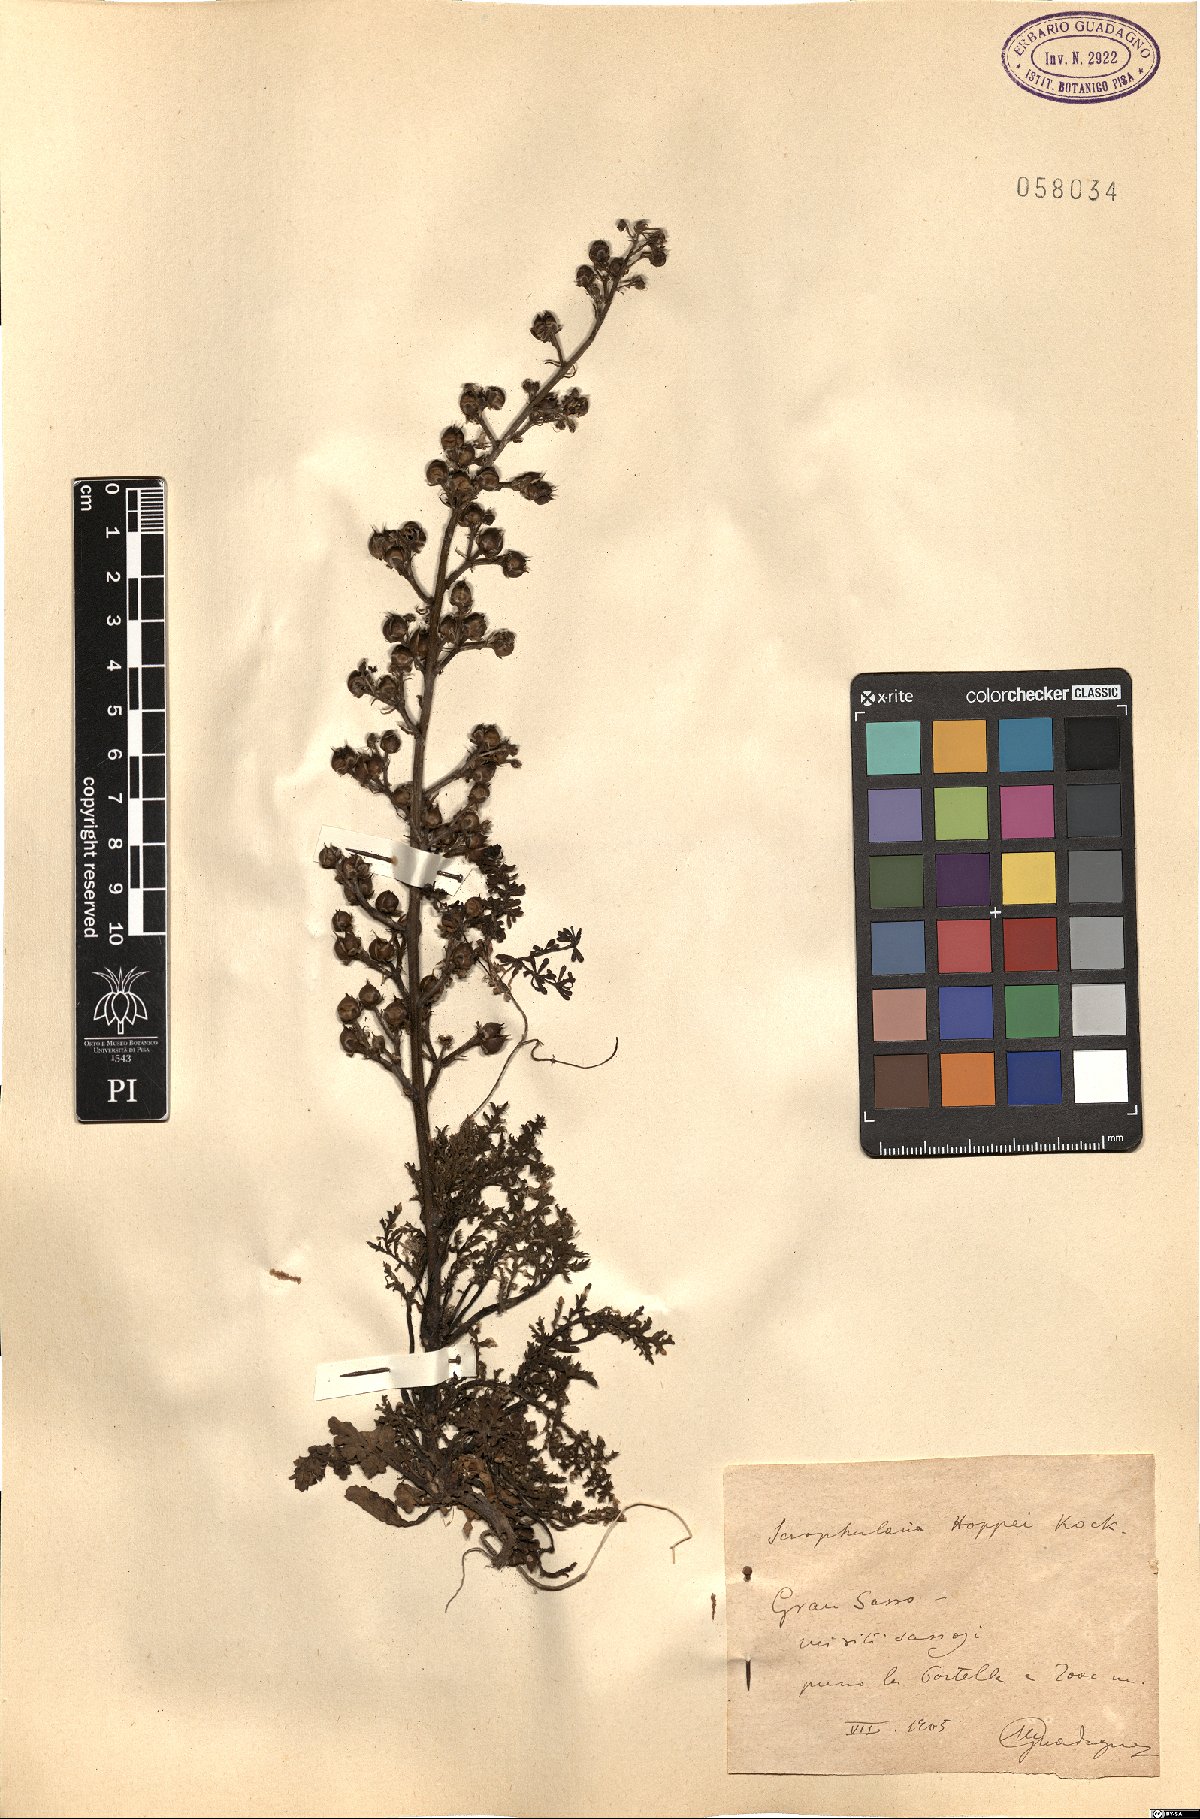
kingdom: Plantae
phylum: Tracheophyta
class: Magnoliopsida
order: Lamiales
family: Scrophulariaceae
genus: Scrophularia
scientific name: Scrophularia canina
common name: French figwort
